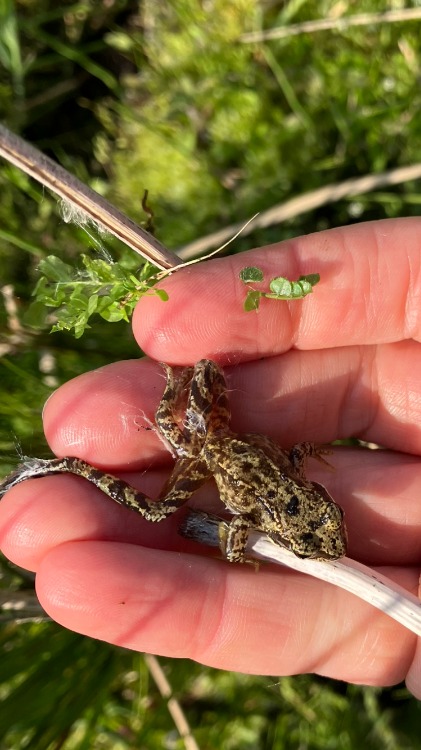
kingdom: Animalia
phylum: Chordata
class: Amphibia
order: Anura
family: Ranidae
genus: Rana
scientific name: Rana temporaria
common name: Butsnudet frø
